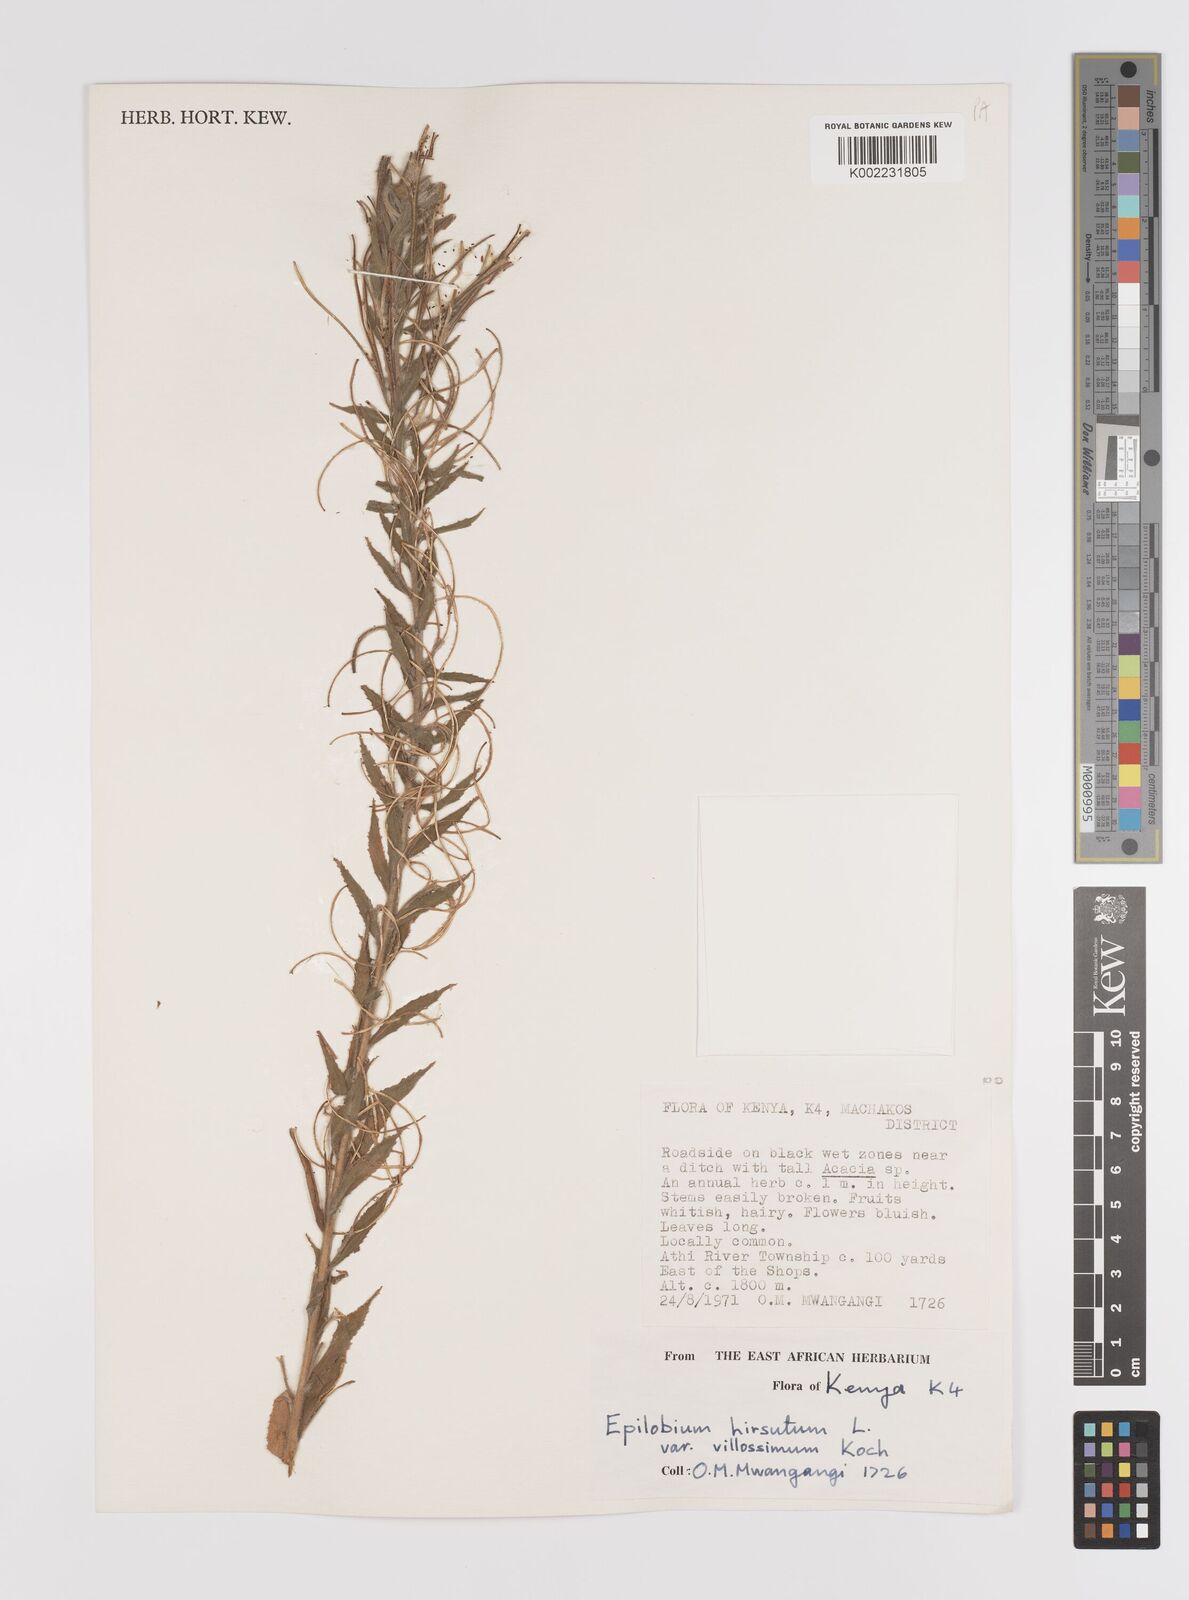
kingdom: Plantae
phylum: Tracheophyta
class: Magnoliopsida
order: Myrtales
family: Onagraceae
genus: Epilobium
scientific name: Epilobium hirsutum
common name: Great willowherb
